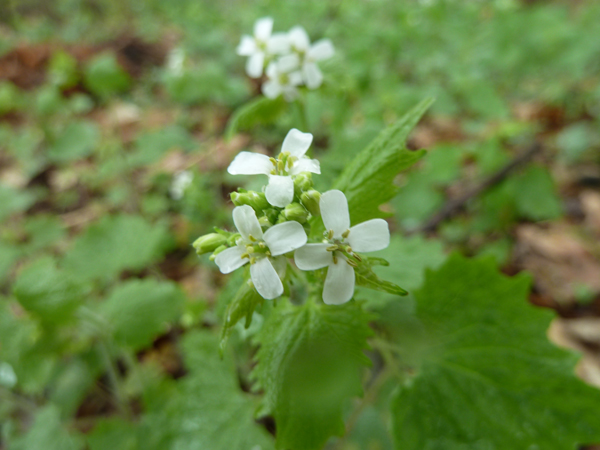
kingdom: Plantae
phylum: Tracheophyta
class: Magnoliopsida
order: Brassicales
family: Brassicaceae
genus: Alliaria
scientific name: Alliaria petiolata
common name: Garlic mustard
